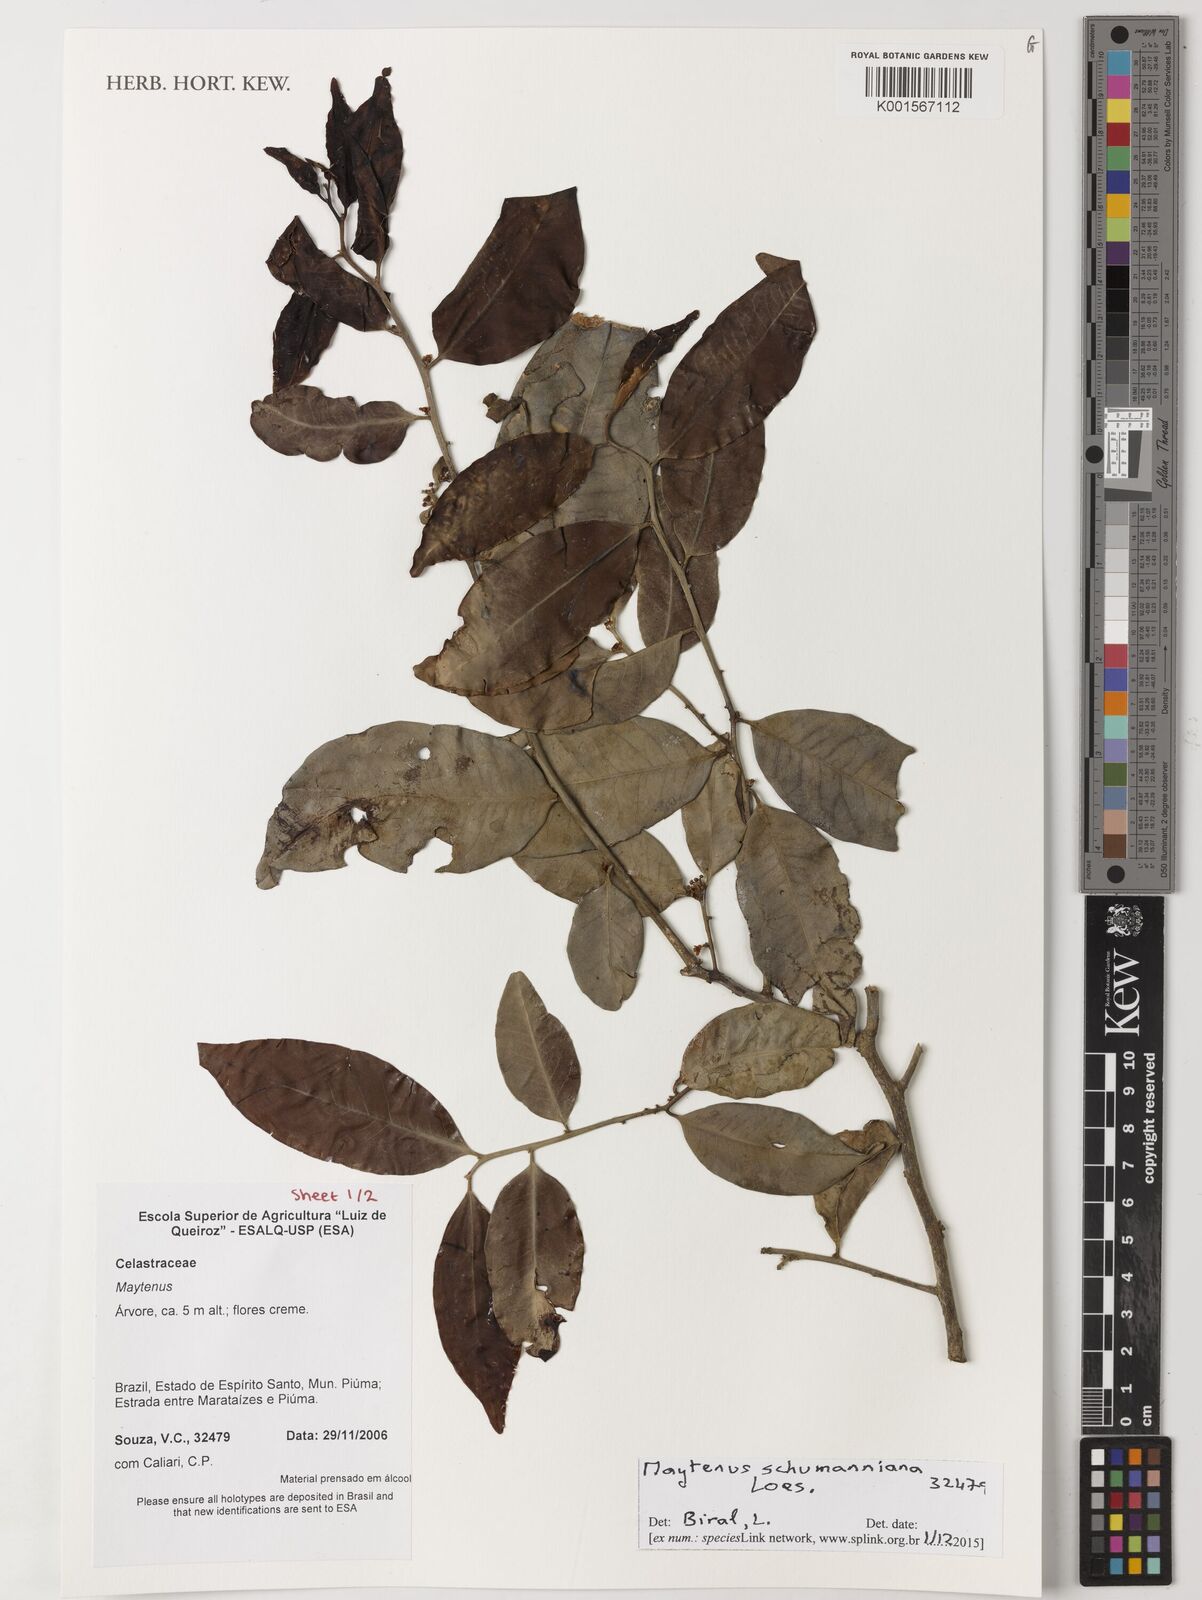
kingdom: Plantae
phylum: Tracheophyta
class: Magnoliopsida
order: Celastrales
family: Celastraceae
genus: Monteverdia
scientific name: Monteverdia schumanniana
